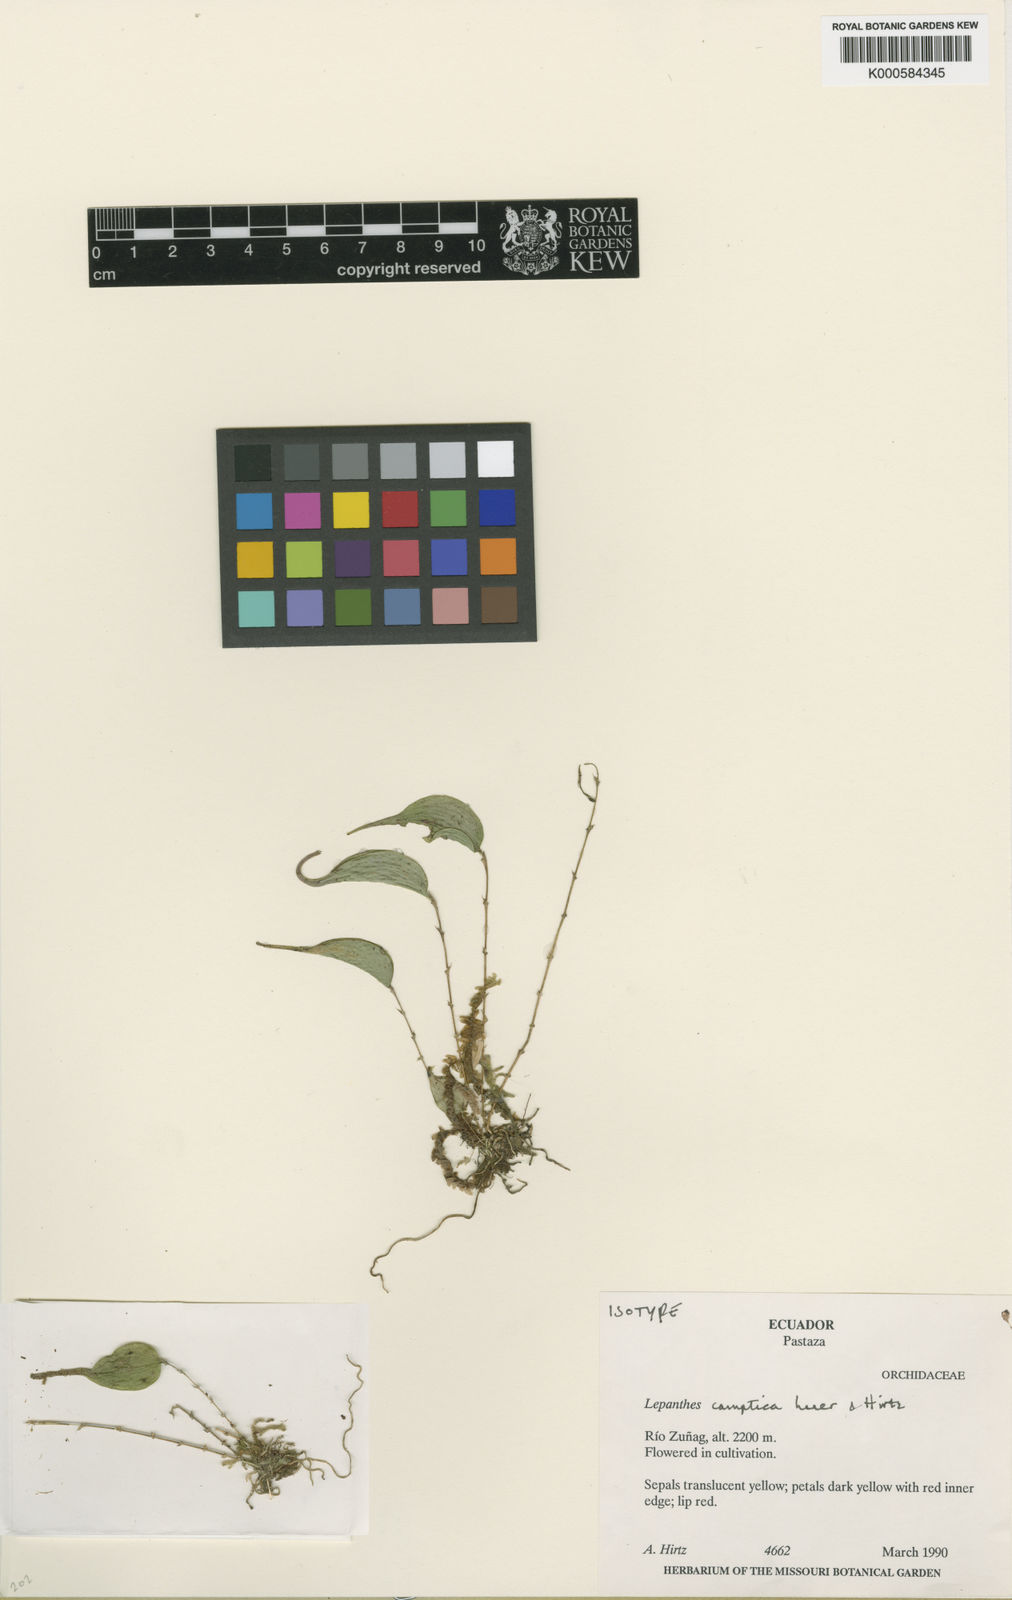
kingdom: Plantae
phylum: Tracheophyta
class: Liliopsida
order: Asparagales
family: Orchidaceae
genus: Lepanthes
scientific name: Lepanthes camptica
